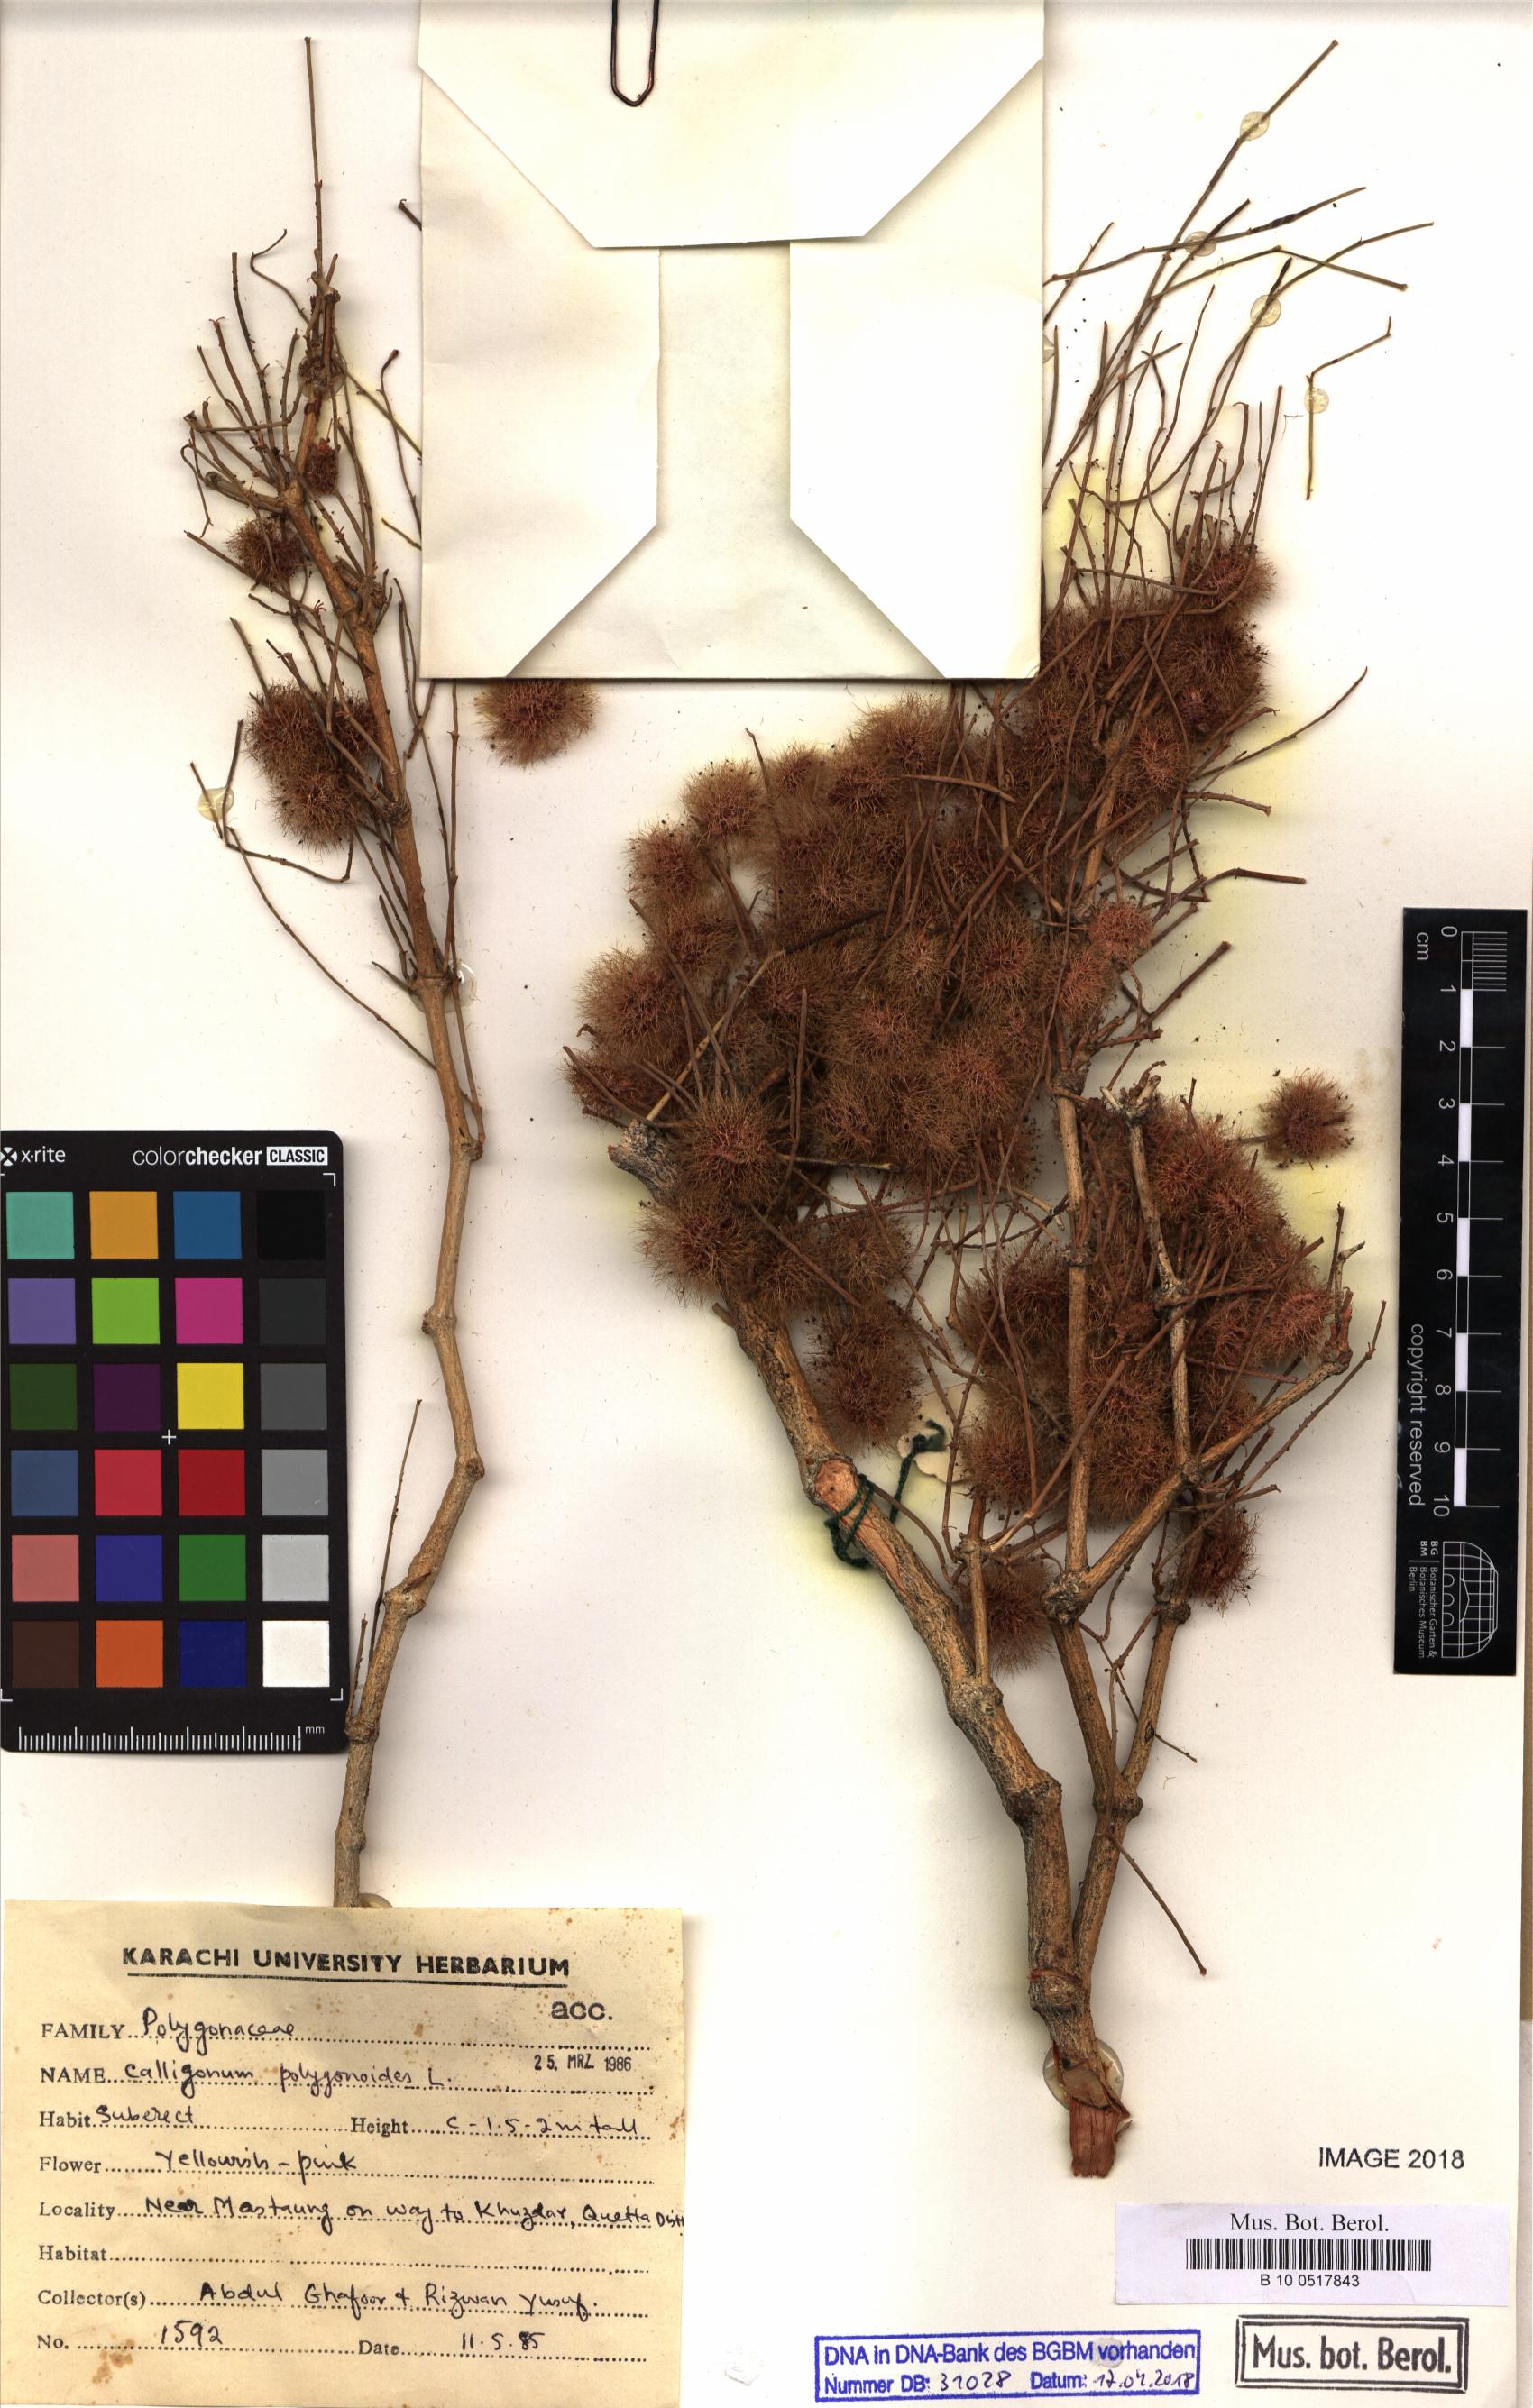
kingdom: Plantae
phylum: Tracheophyta
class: Magnoliopsida
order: Caryophyllales
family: Polygonaceae
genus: Calligonum
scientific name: Calligonum polygonoides
